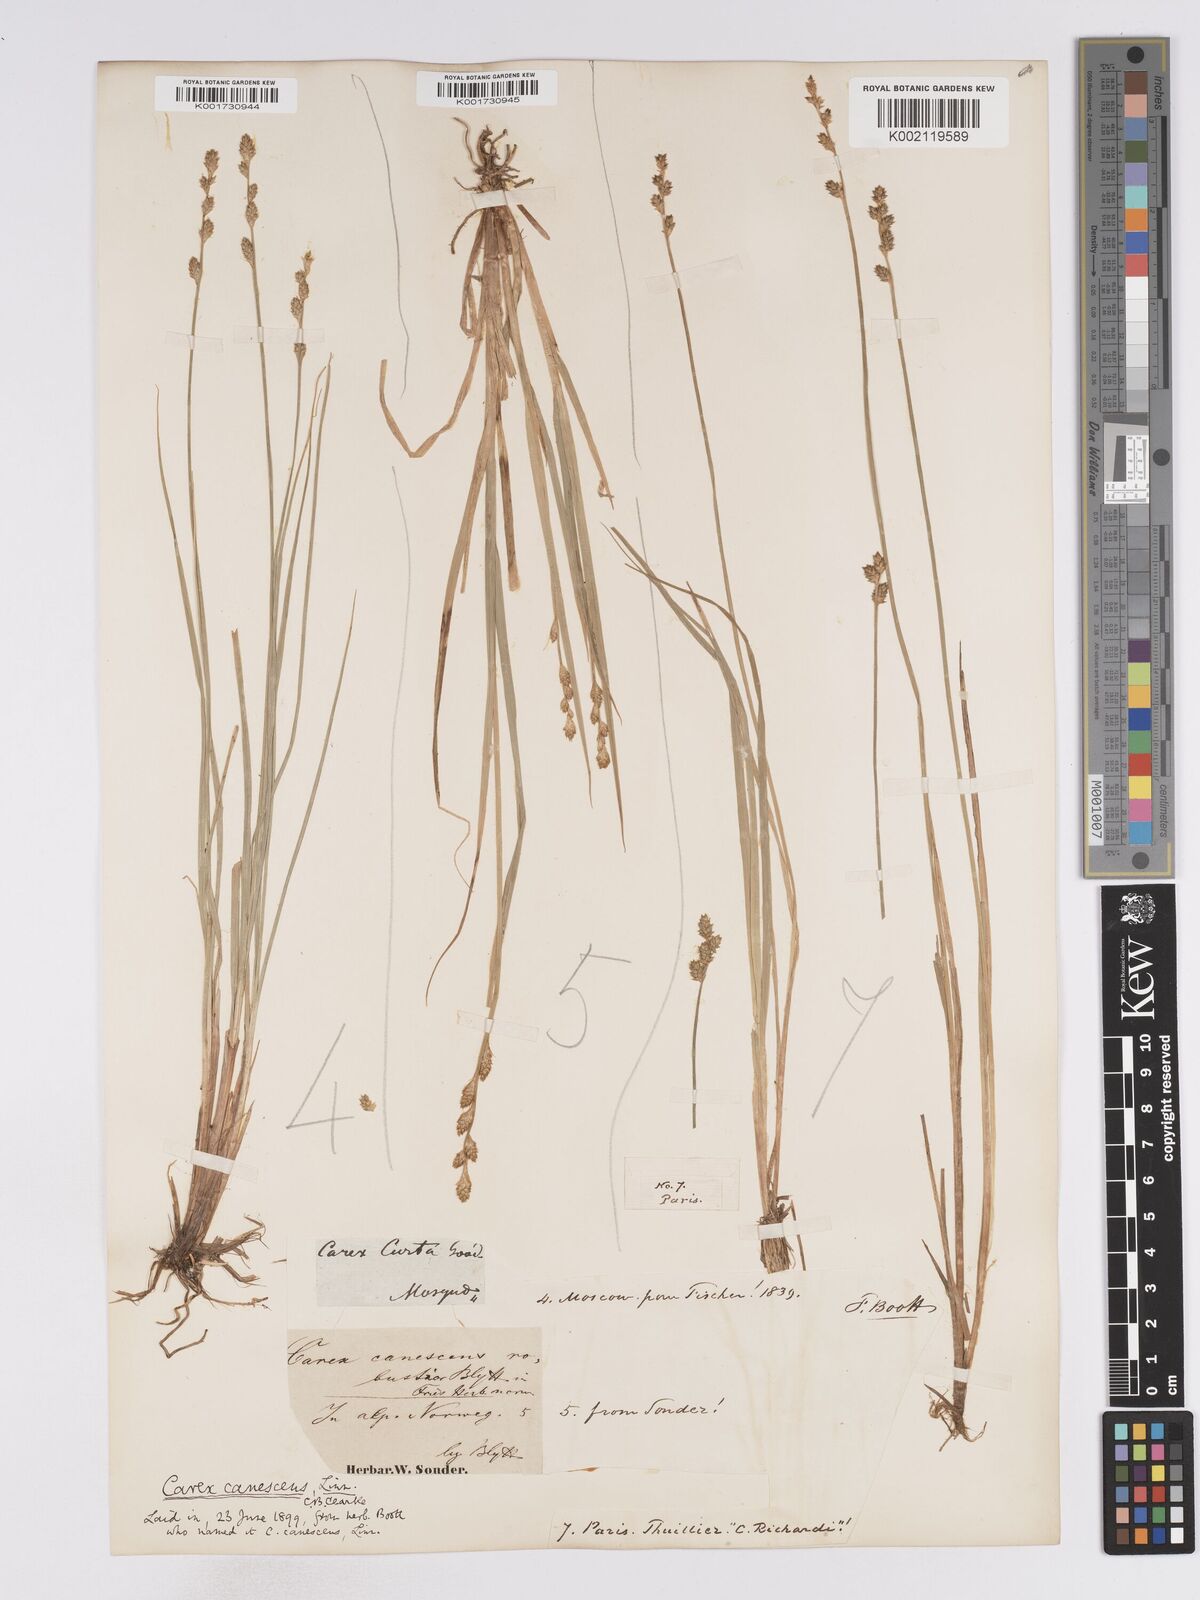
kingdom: Plantae
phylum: Tracheophyta
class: Liliopsida
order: Poales
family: Cyperaceae
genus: Carex
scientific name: Carex curta
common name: White sedge
